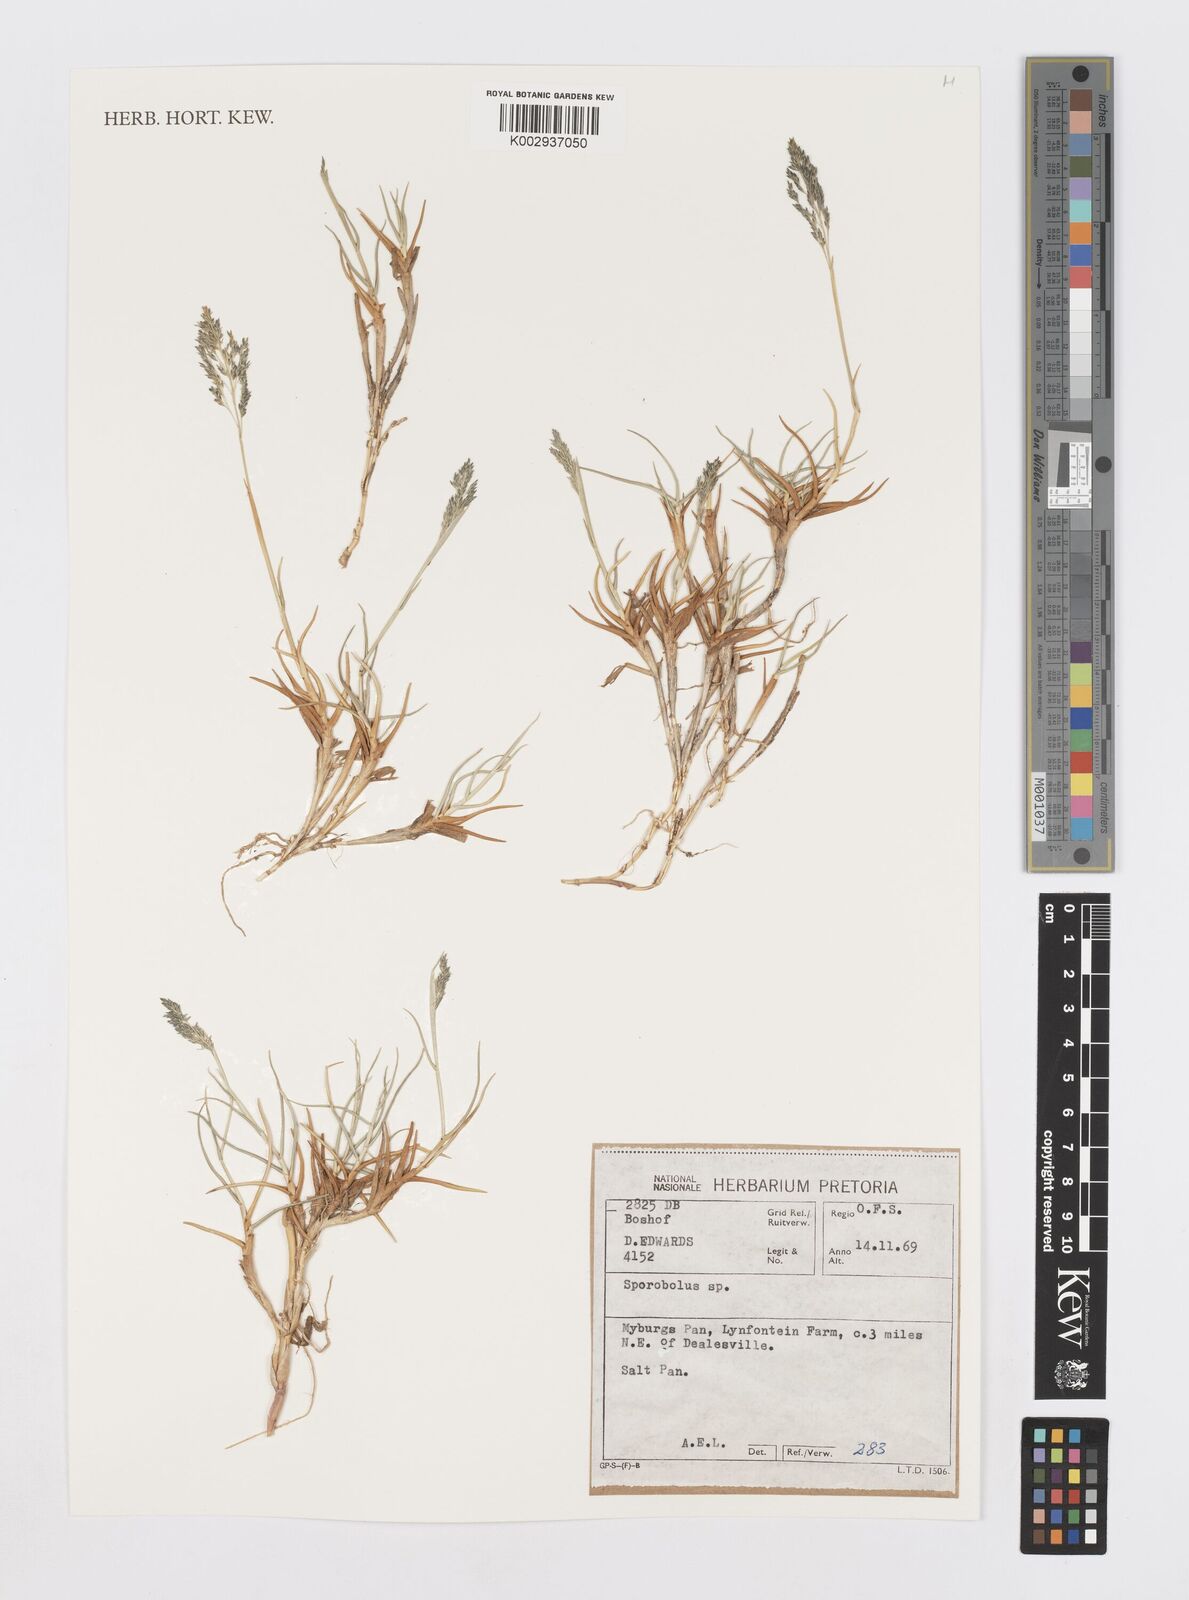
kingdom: Plantae
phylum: Tracheophyta
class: Liliopsida
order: Poales
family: Poaceae
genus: Sporobolus
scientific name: Sporobolus
